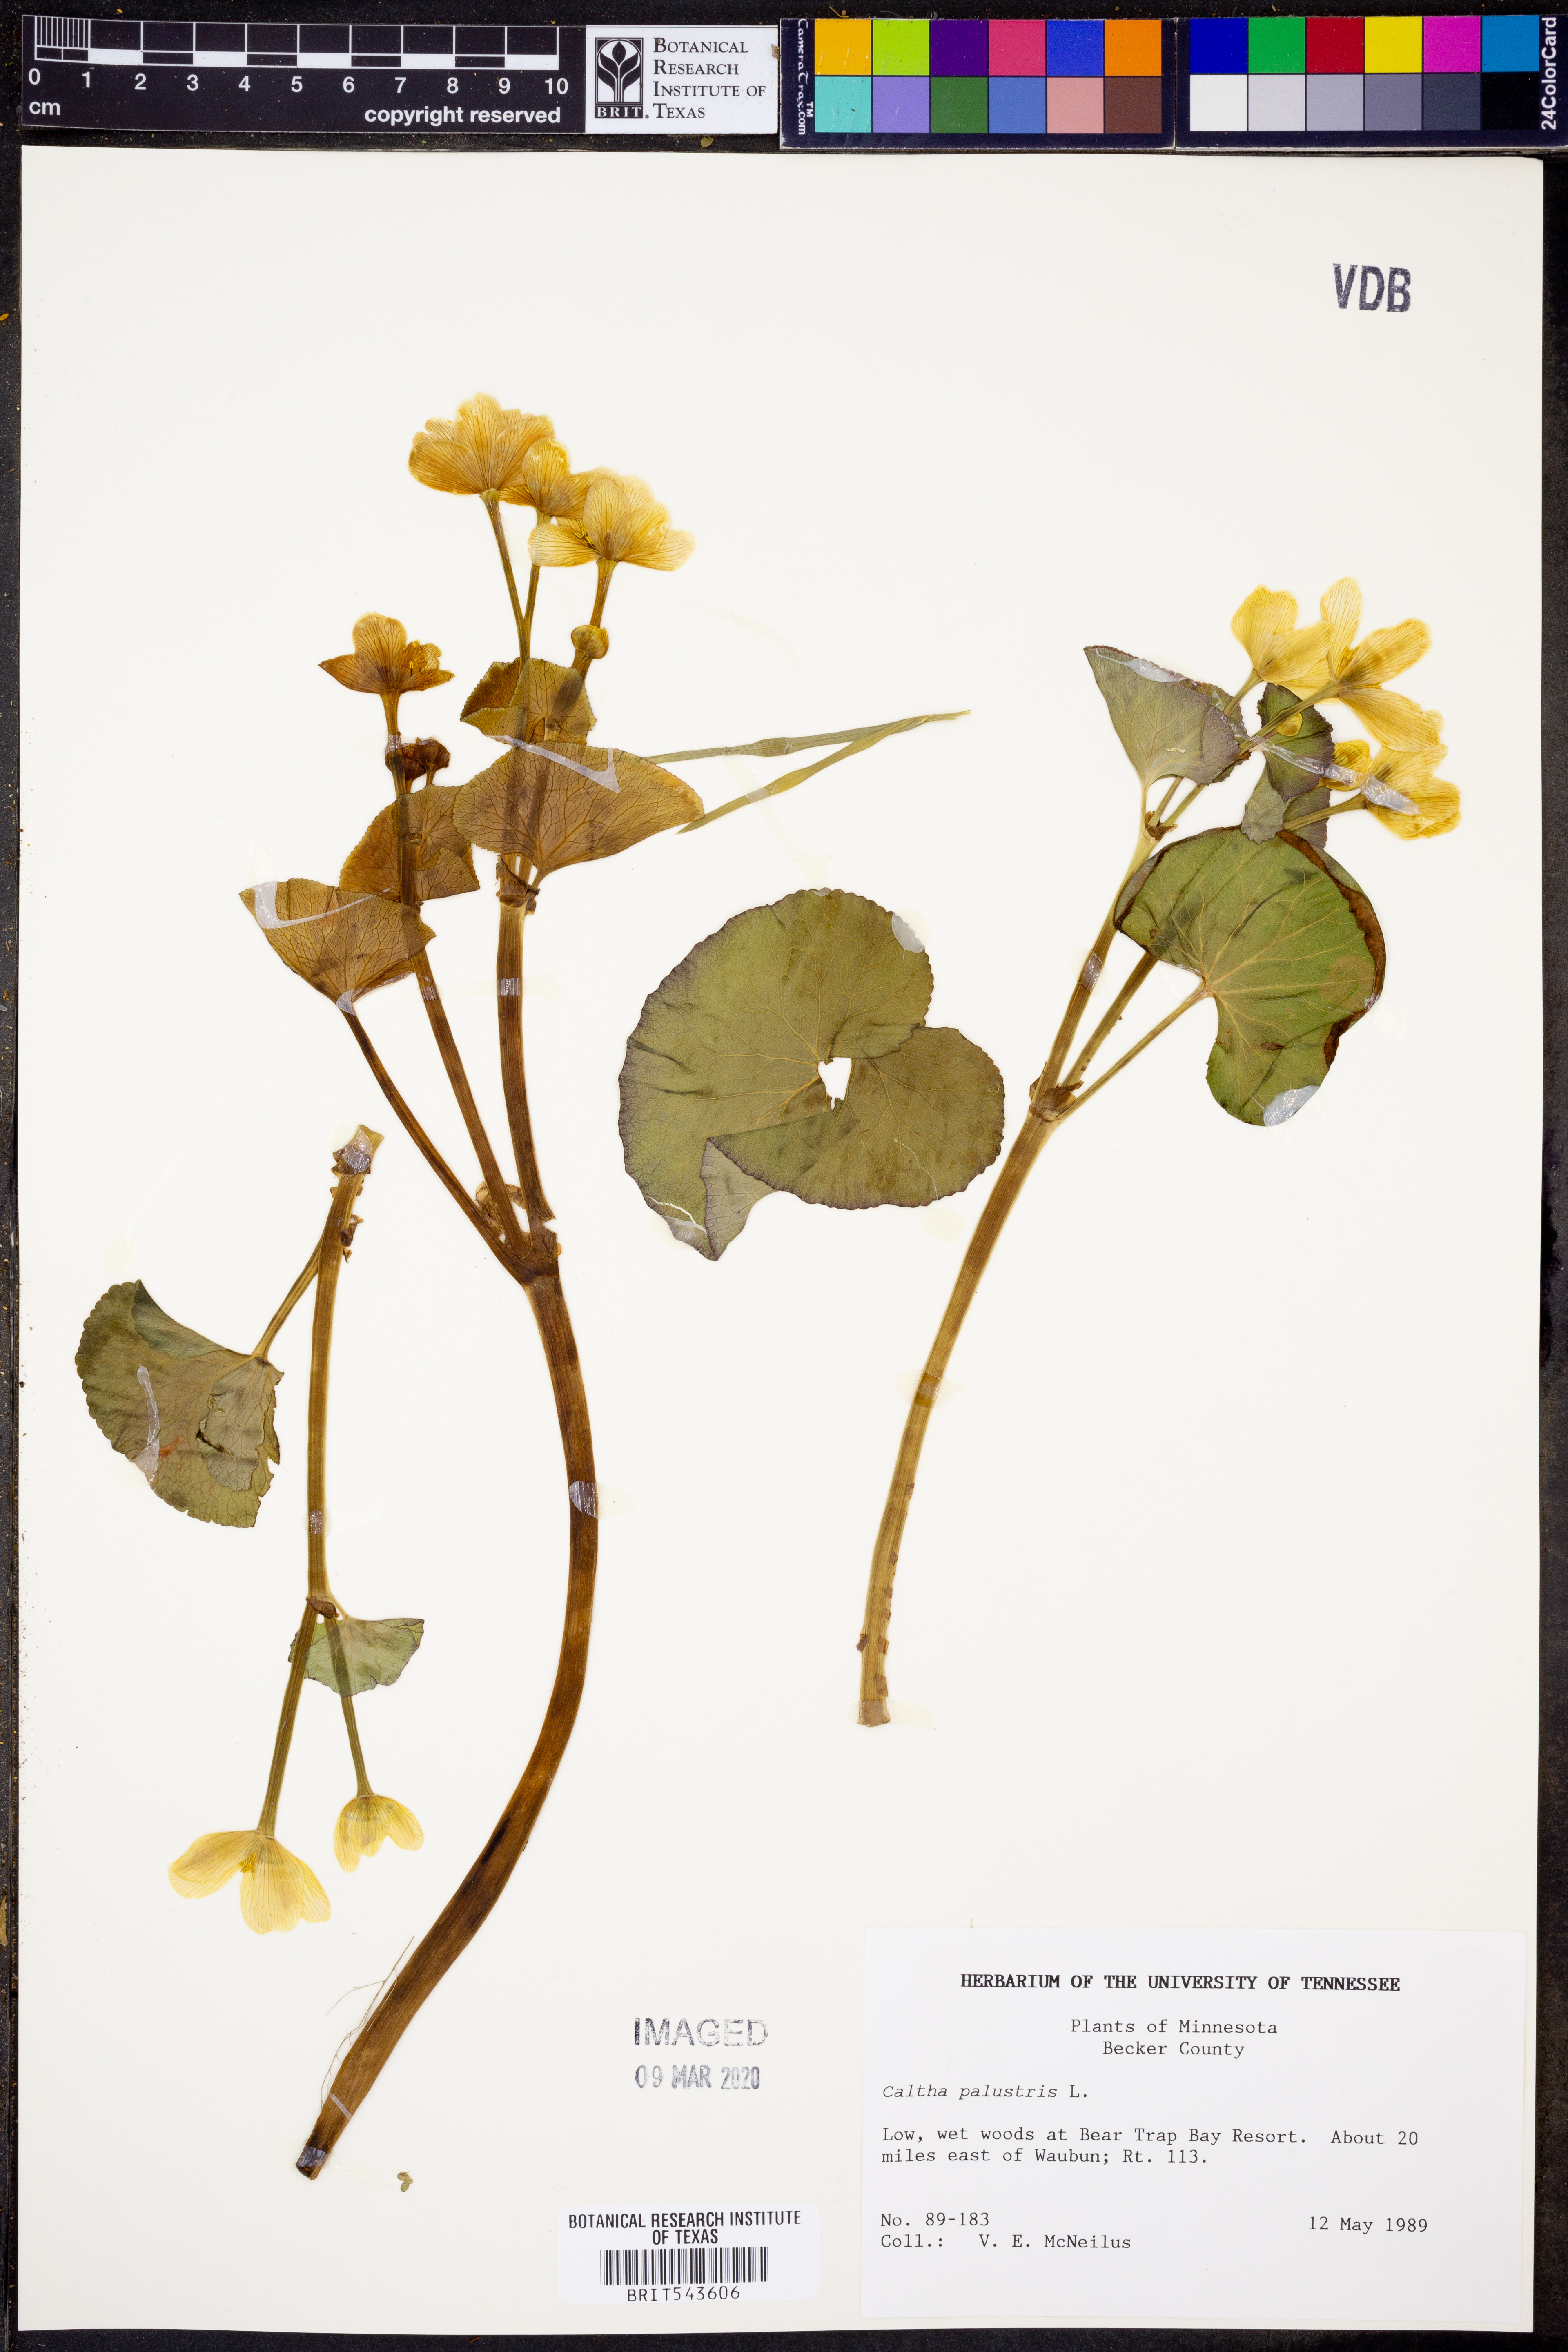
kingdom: Plantae
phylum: Tracheophyta
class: Magnoliopsida
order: Ranunculales
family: Ranunculaceae
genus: Caltha
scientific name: Caltha palustris
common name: Marsh marigold
